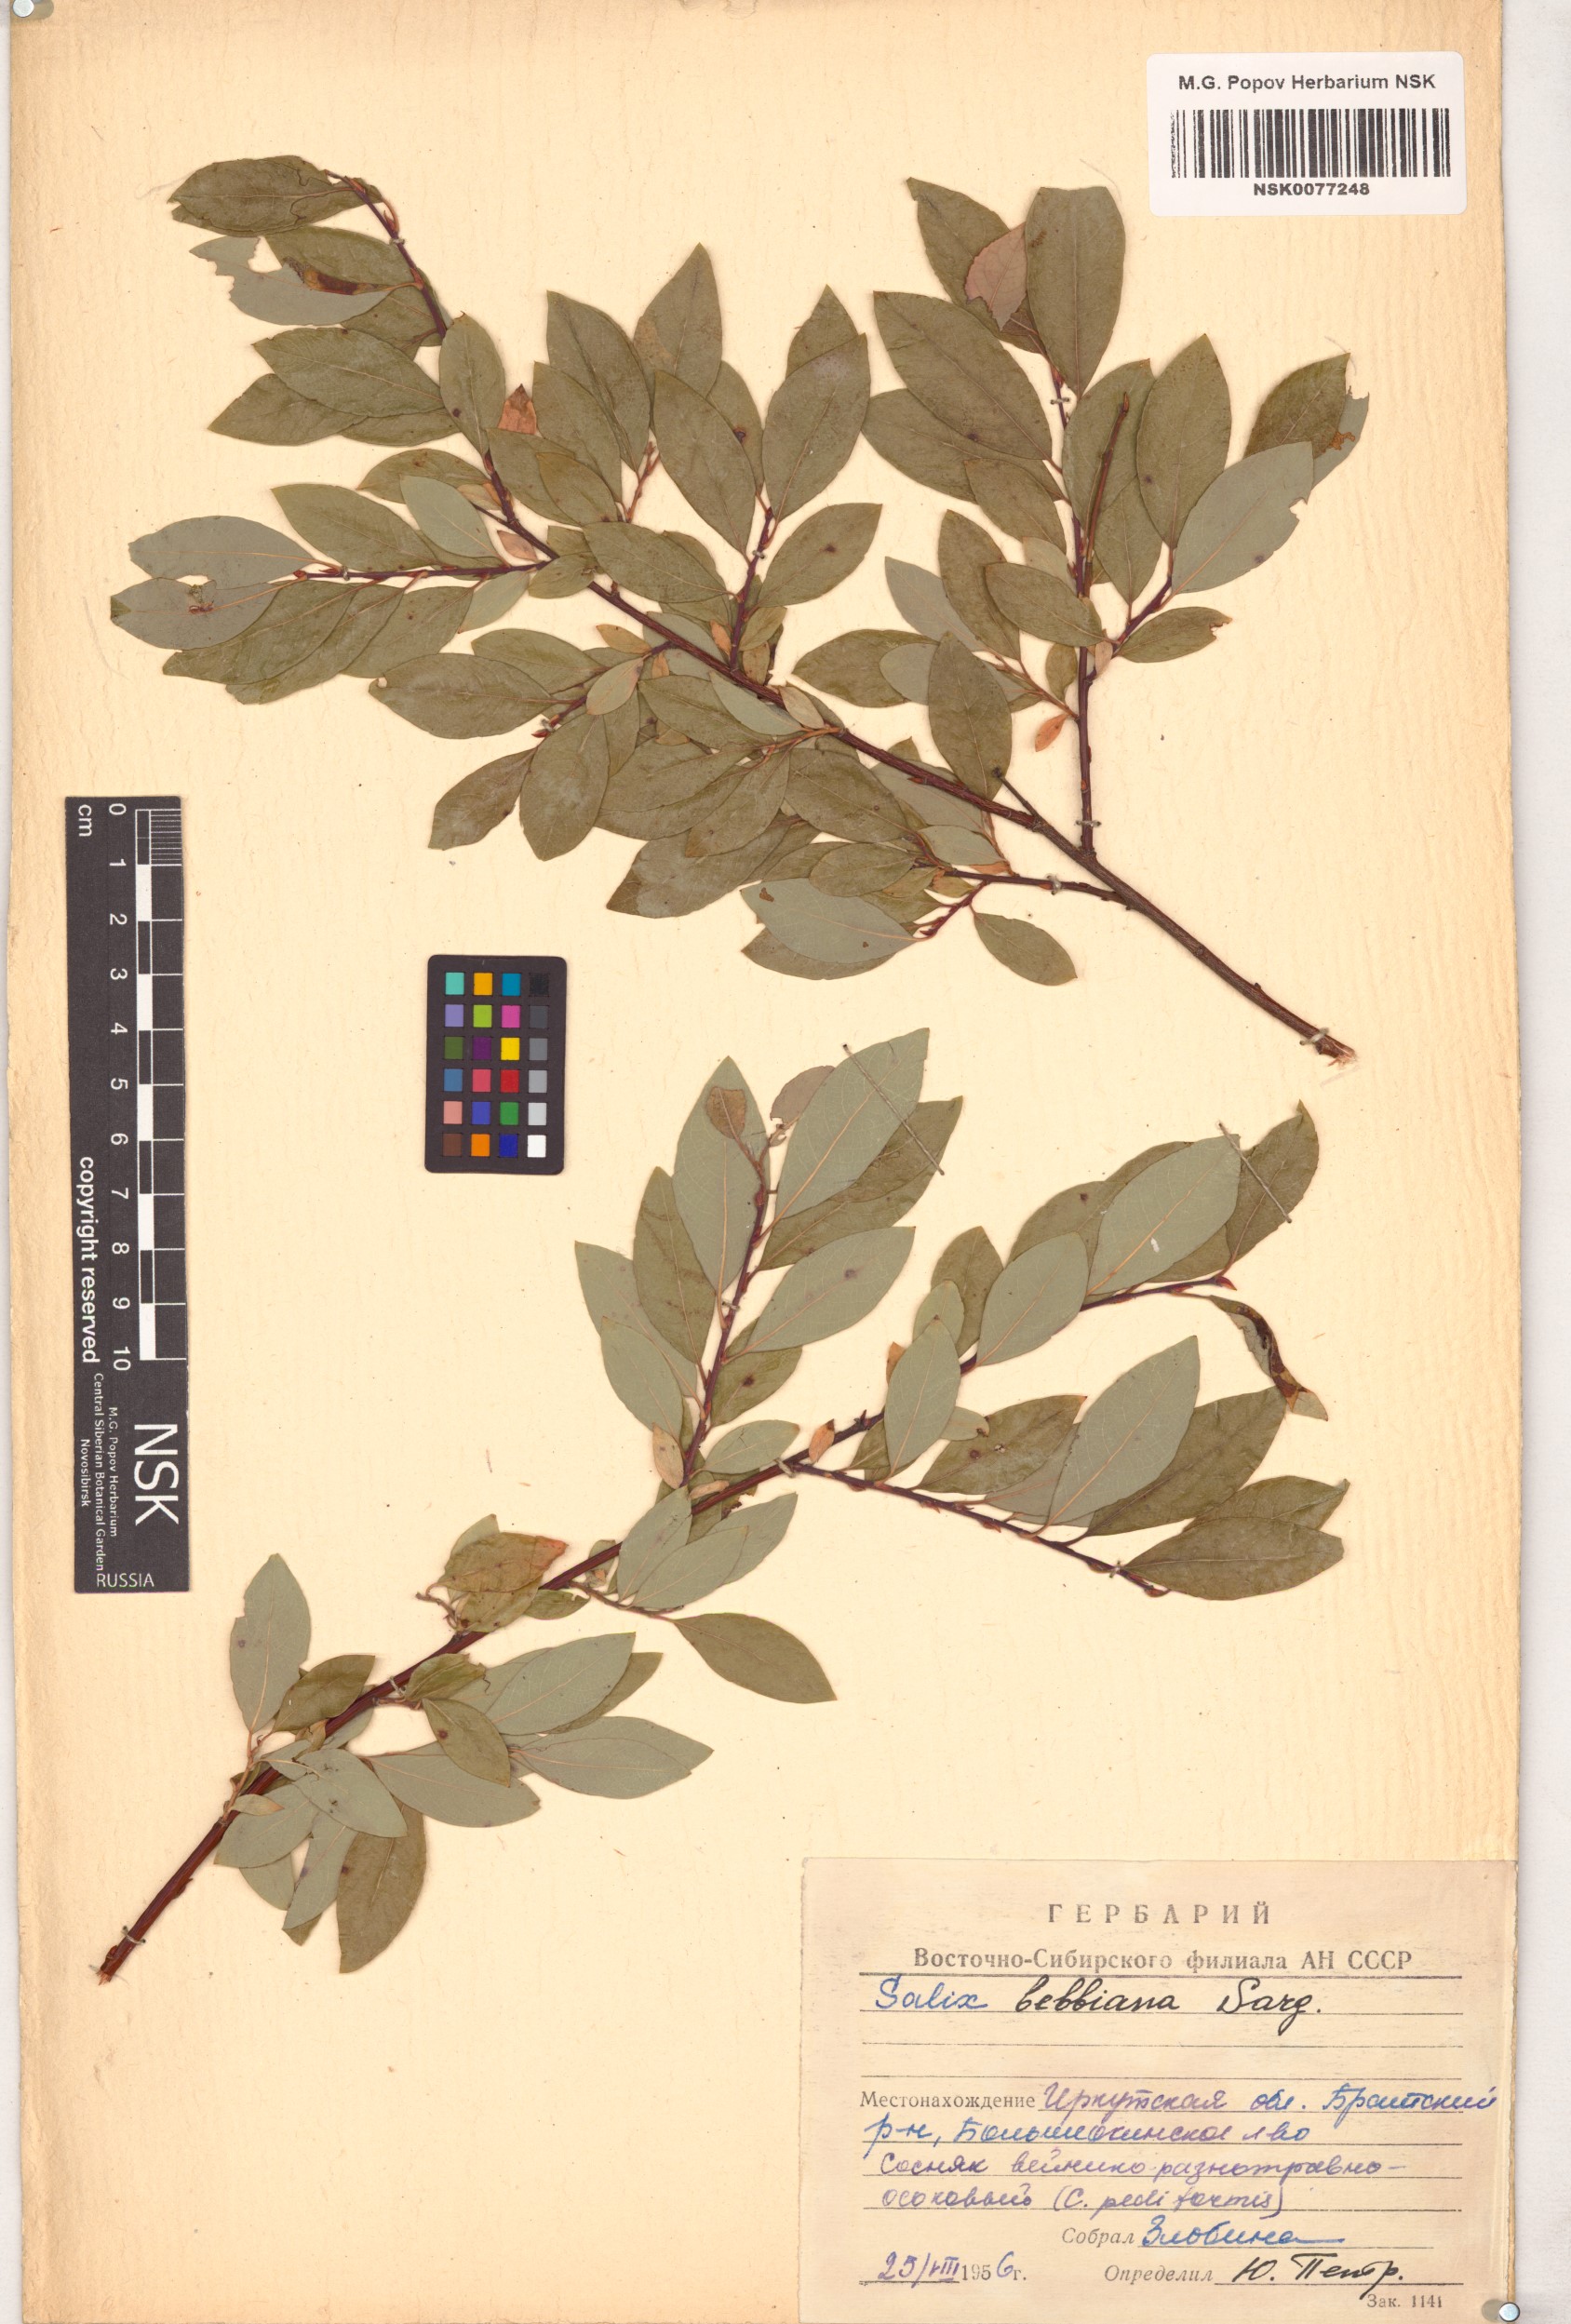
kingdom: Plantae
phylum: Tracheophyta
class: Magnoliopsida
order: Malpighiales
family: Salicaceae
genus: Salix
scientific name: Salix bebbiana
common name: Bebb's willow
